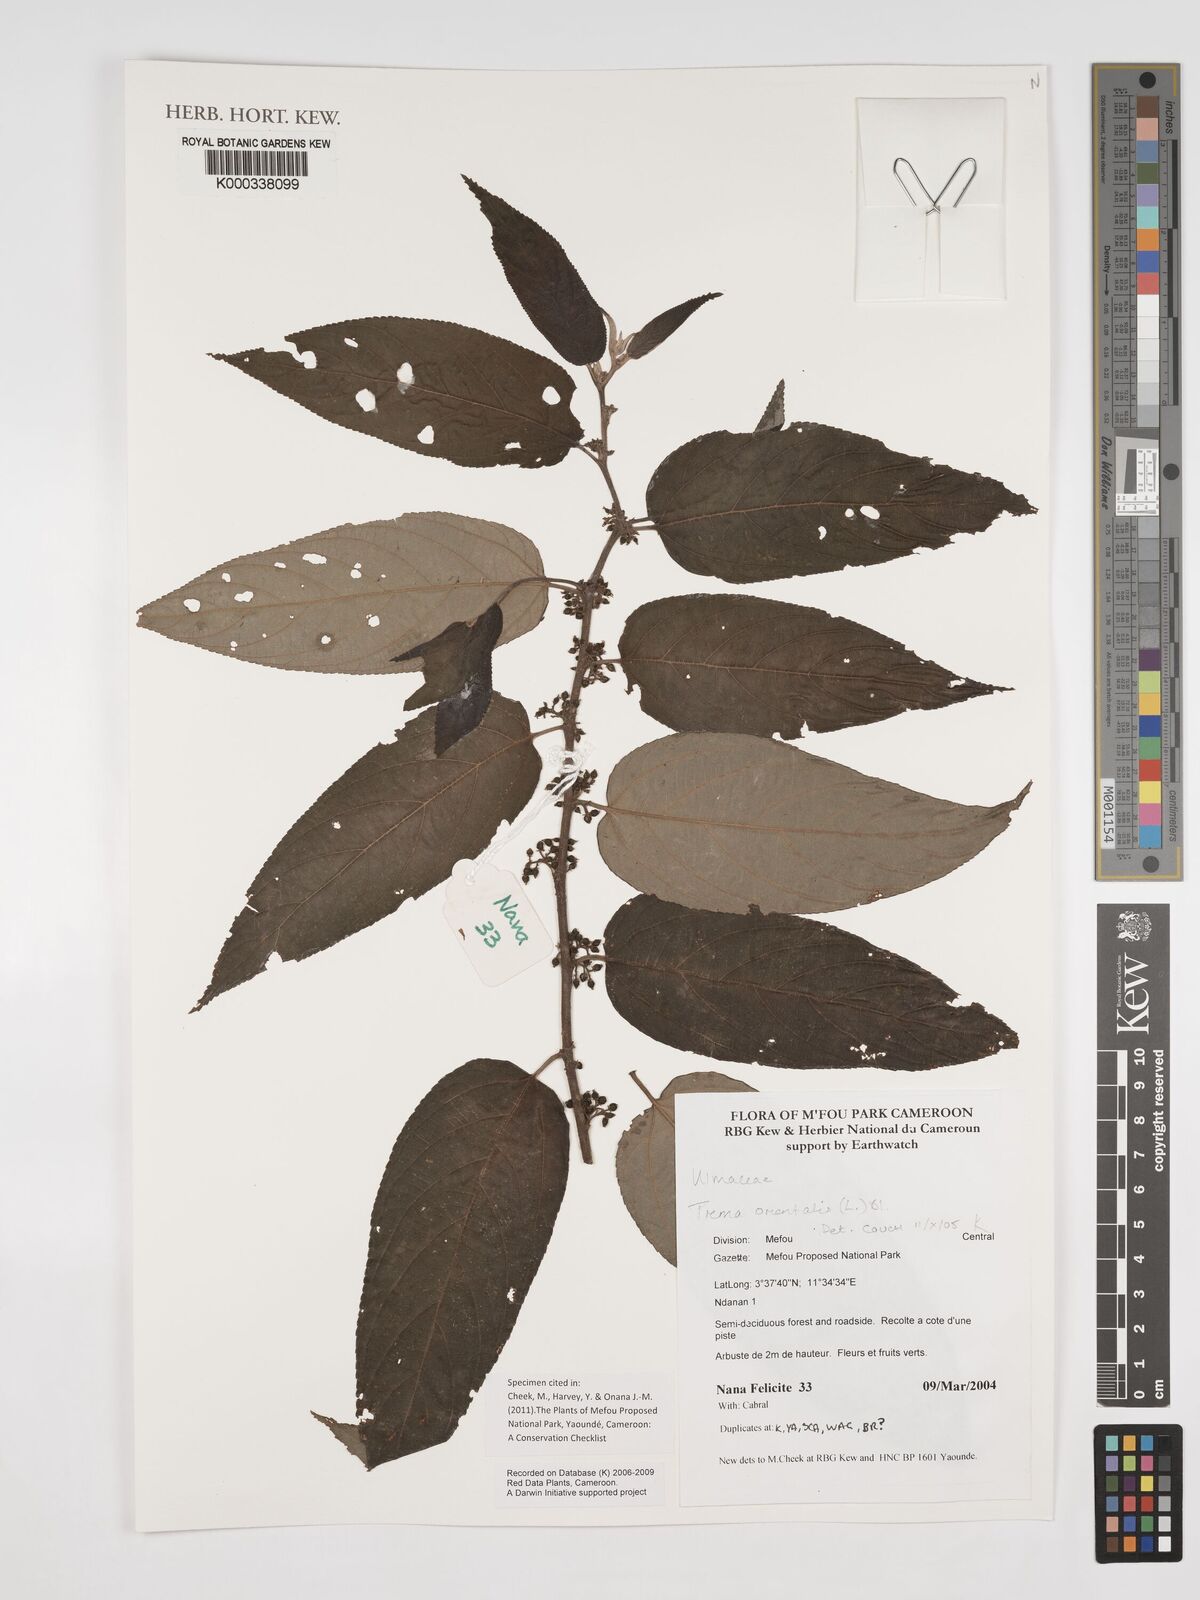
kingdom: Plantae
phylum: Tracheophyta
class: Magnoliopsida
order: Rosales
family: Cannabaceae
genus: Trema
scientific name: Trema
